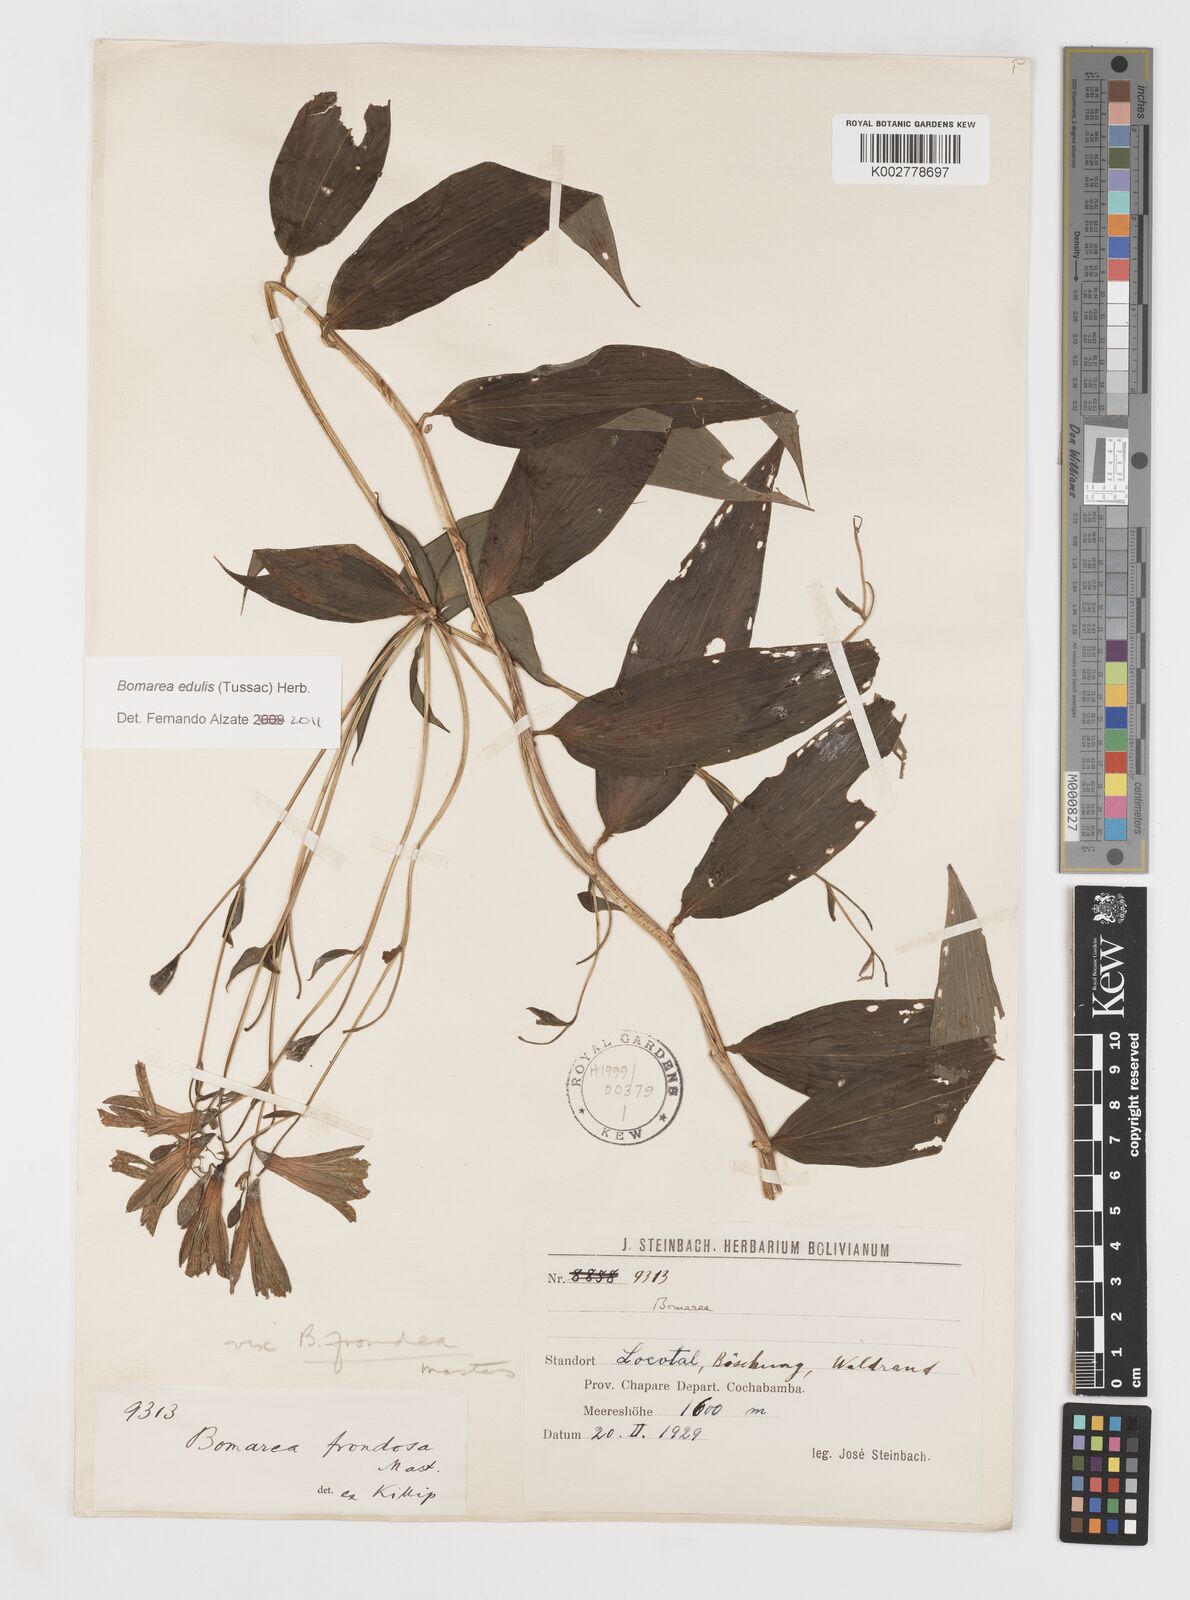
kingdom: Plantae
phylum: Tracheophyta
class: Liliopsida
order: Liliales
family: Alstroemeriaceae
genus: Bomarea
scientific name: Bomarea edulis
